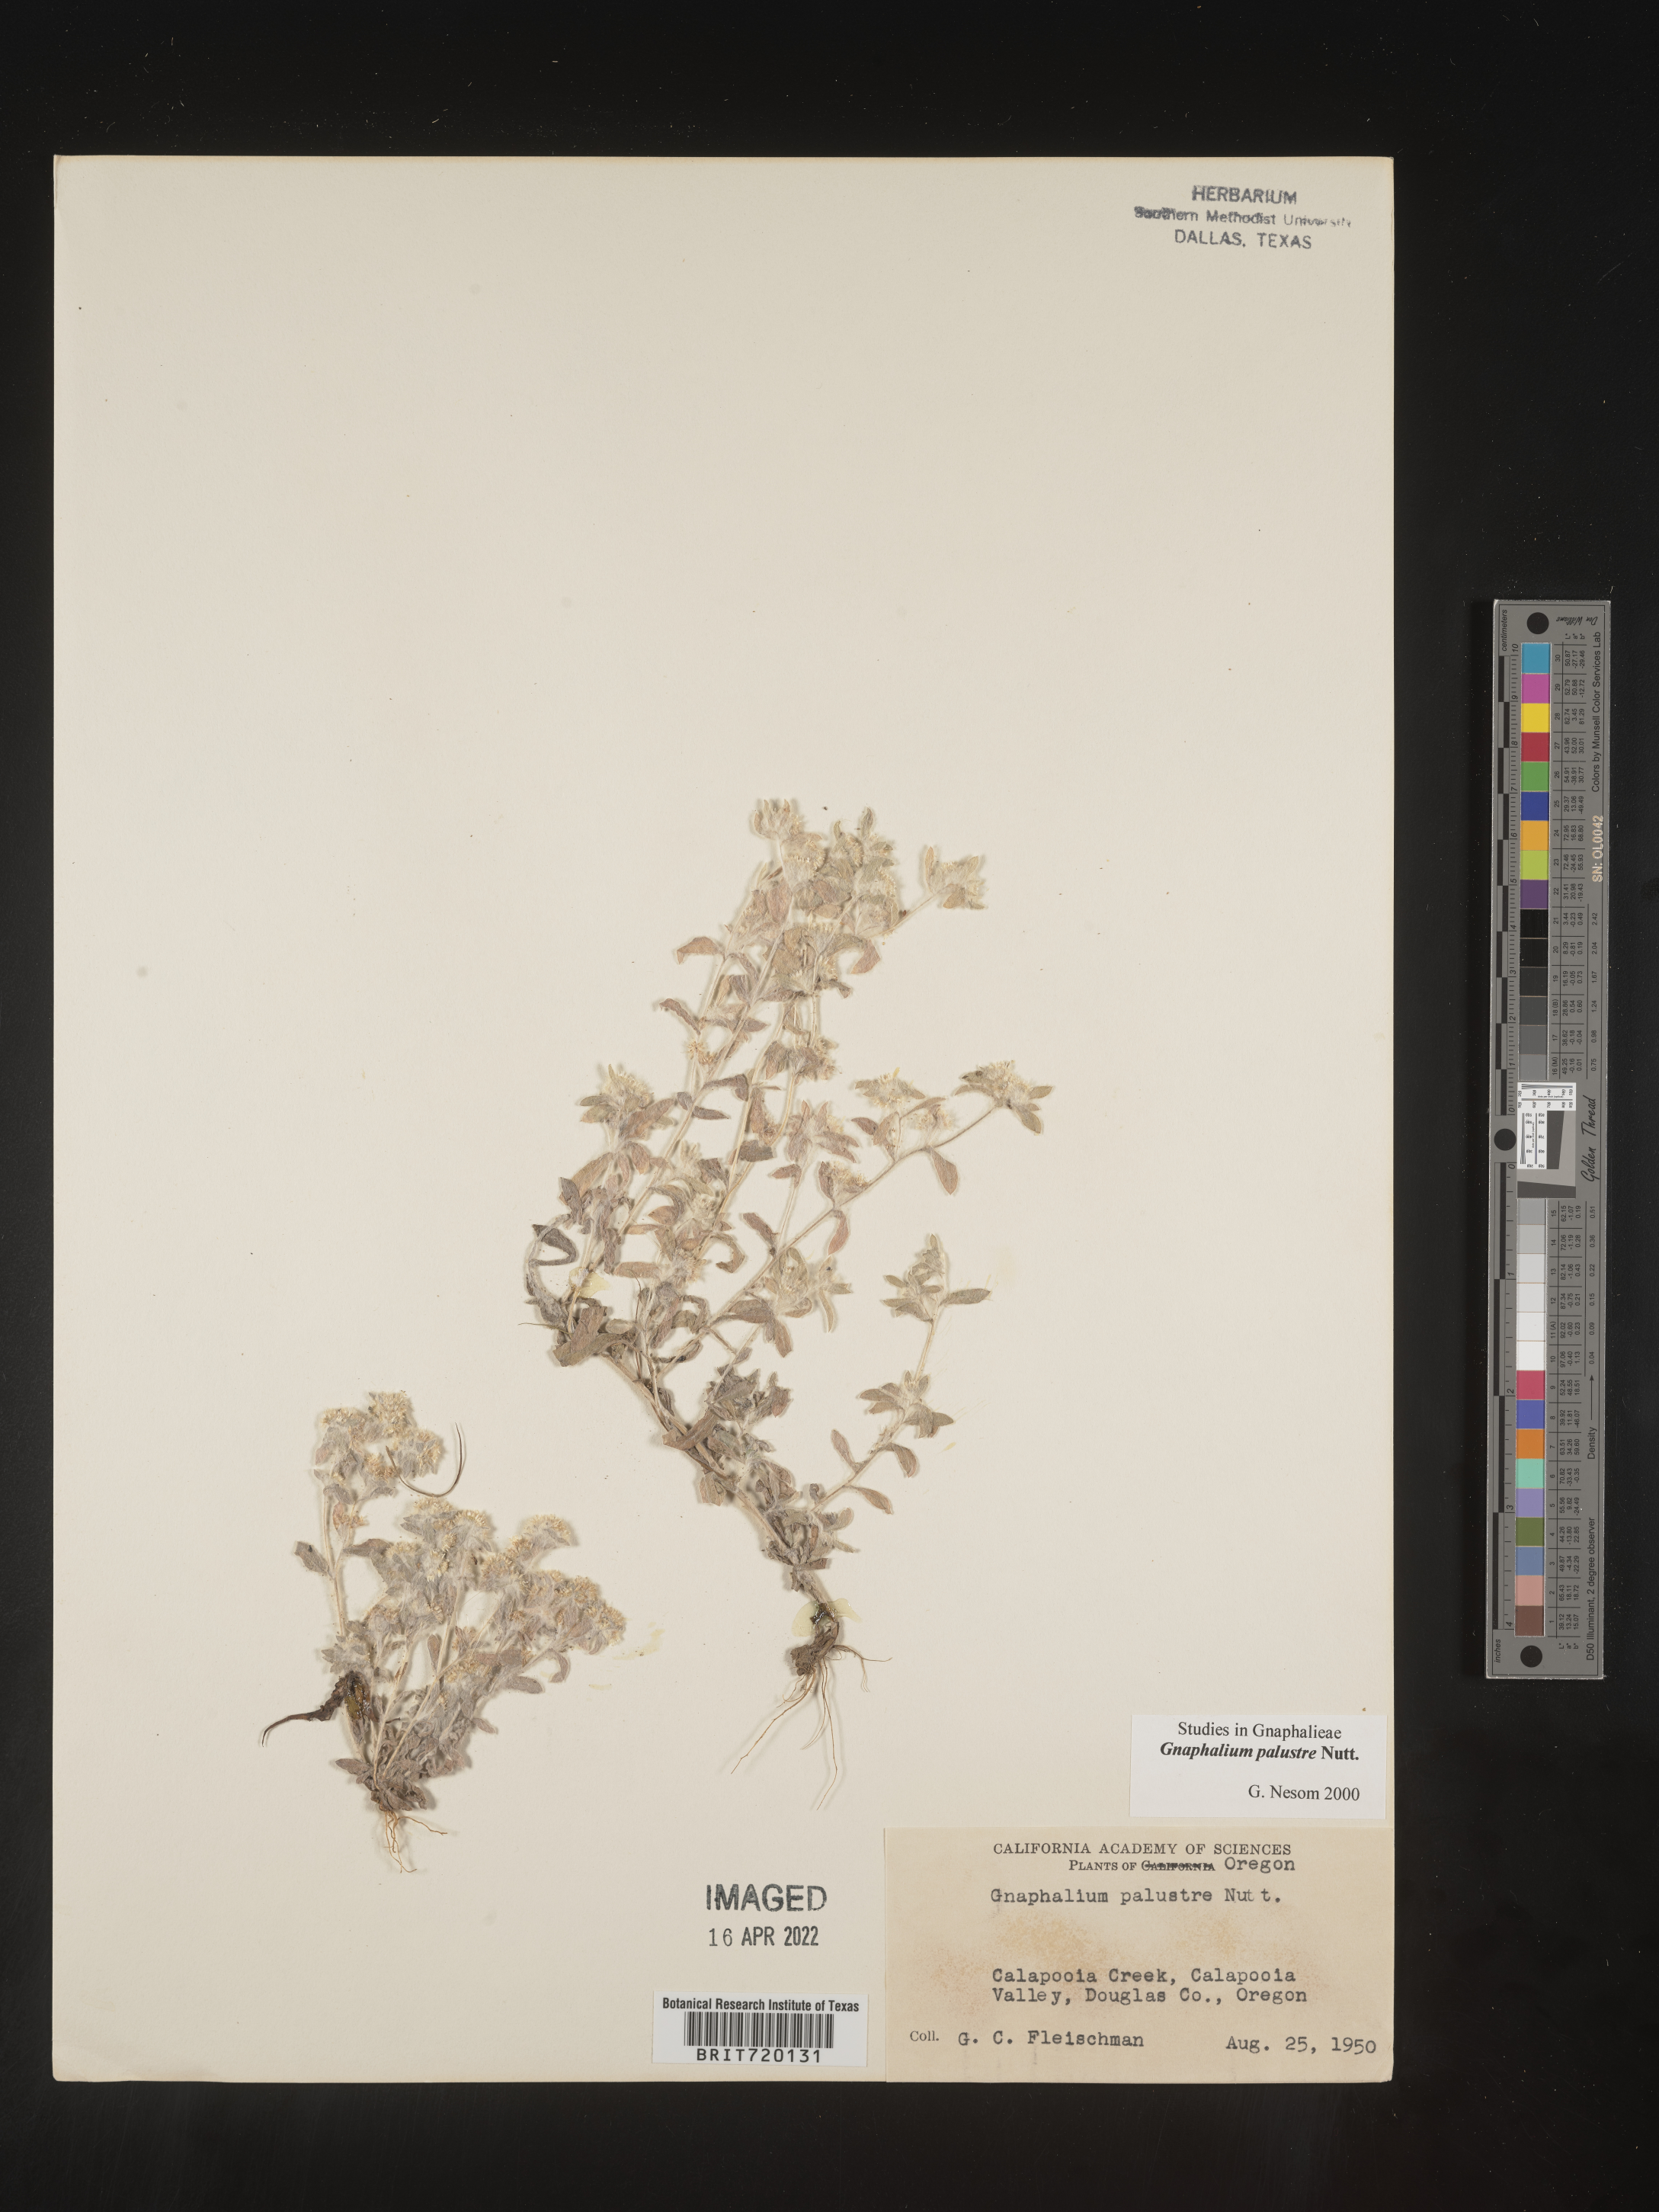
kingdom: Plantae
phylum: Tracheophyta
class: Magnoliopsida
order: Asterales
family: Asteraceae
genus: Gnaphalium
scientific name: Gnaphalium palustre
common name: Western marsh cudweed
